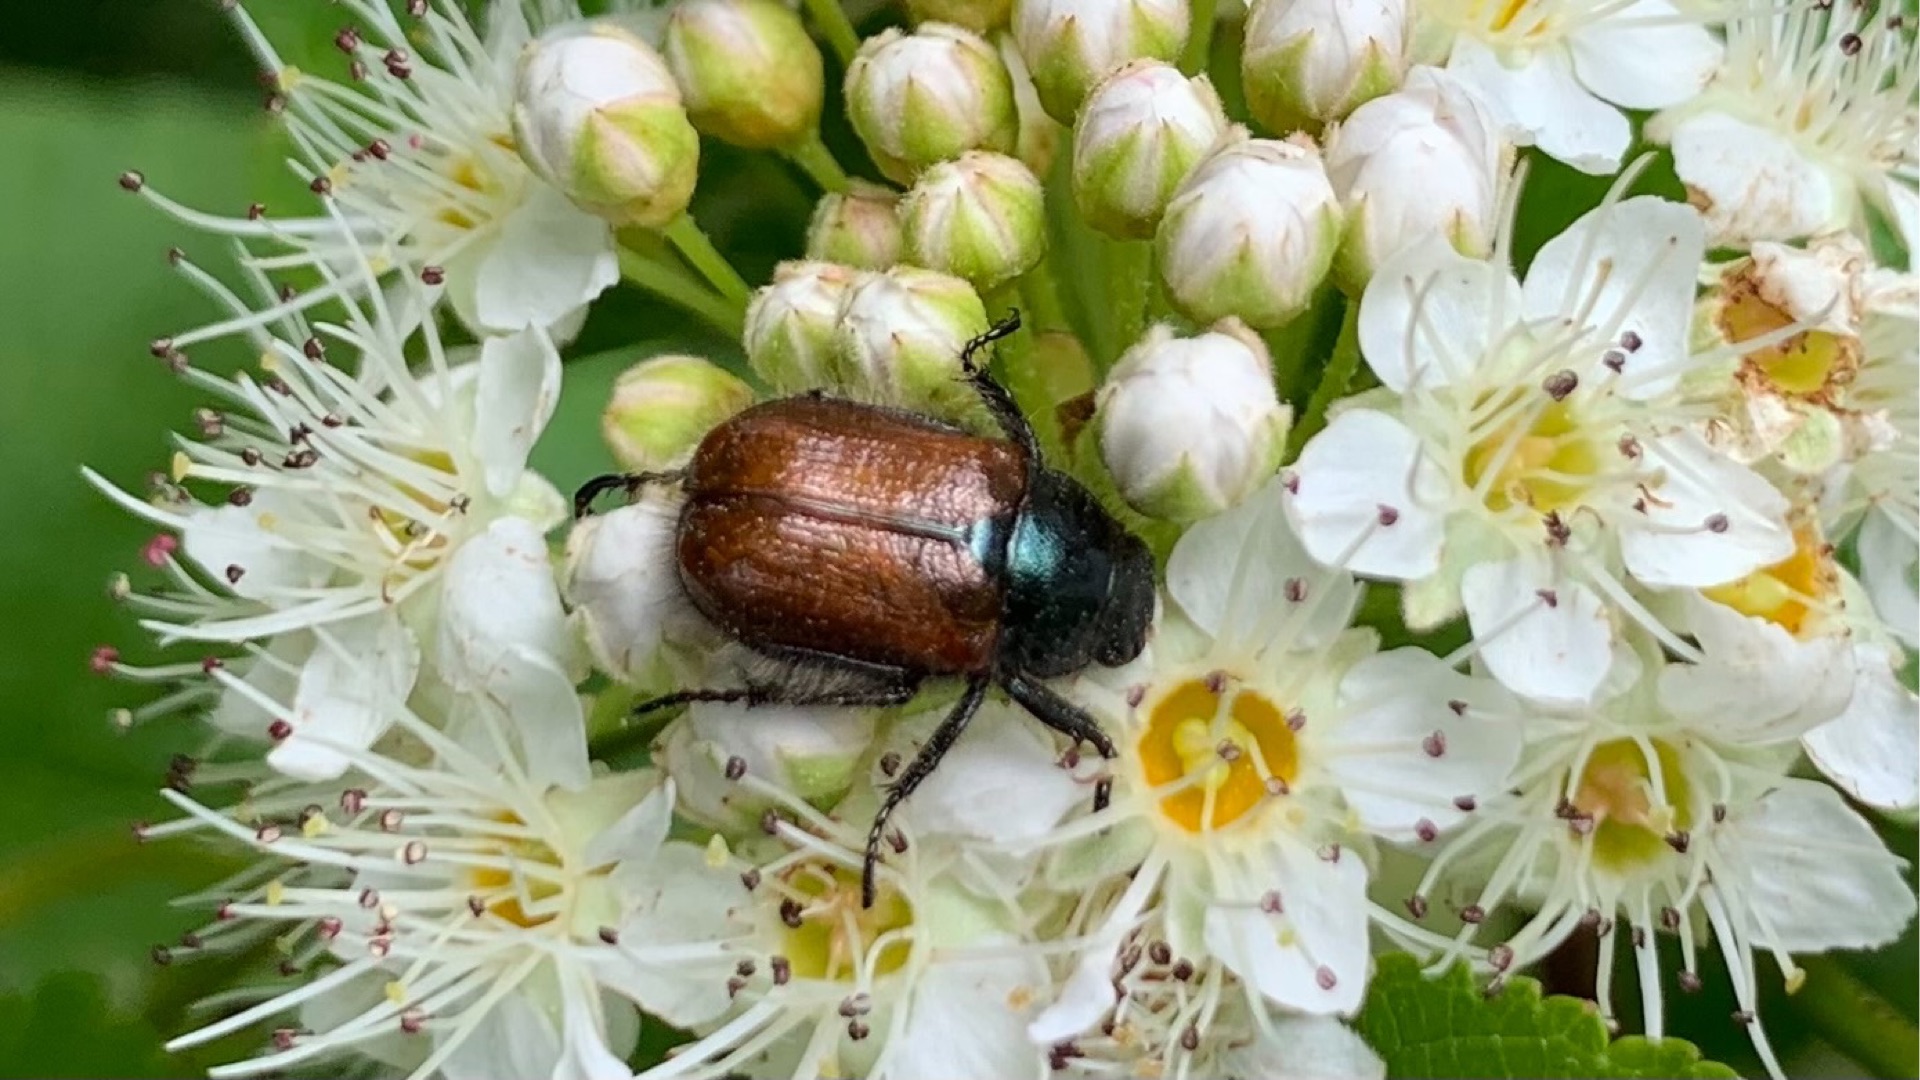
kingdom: Animalia
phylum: Arthropoda
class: Insecta
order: Coleoptera
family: Scarabaeidae
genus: Phyllopertha
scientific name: Phyllopertha horticola
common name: Gåsebille
